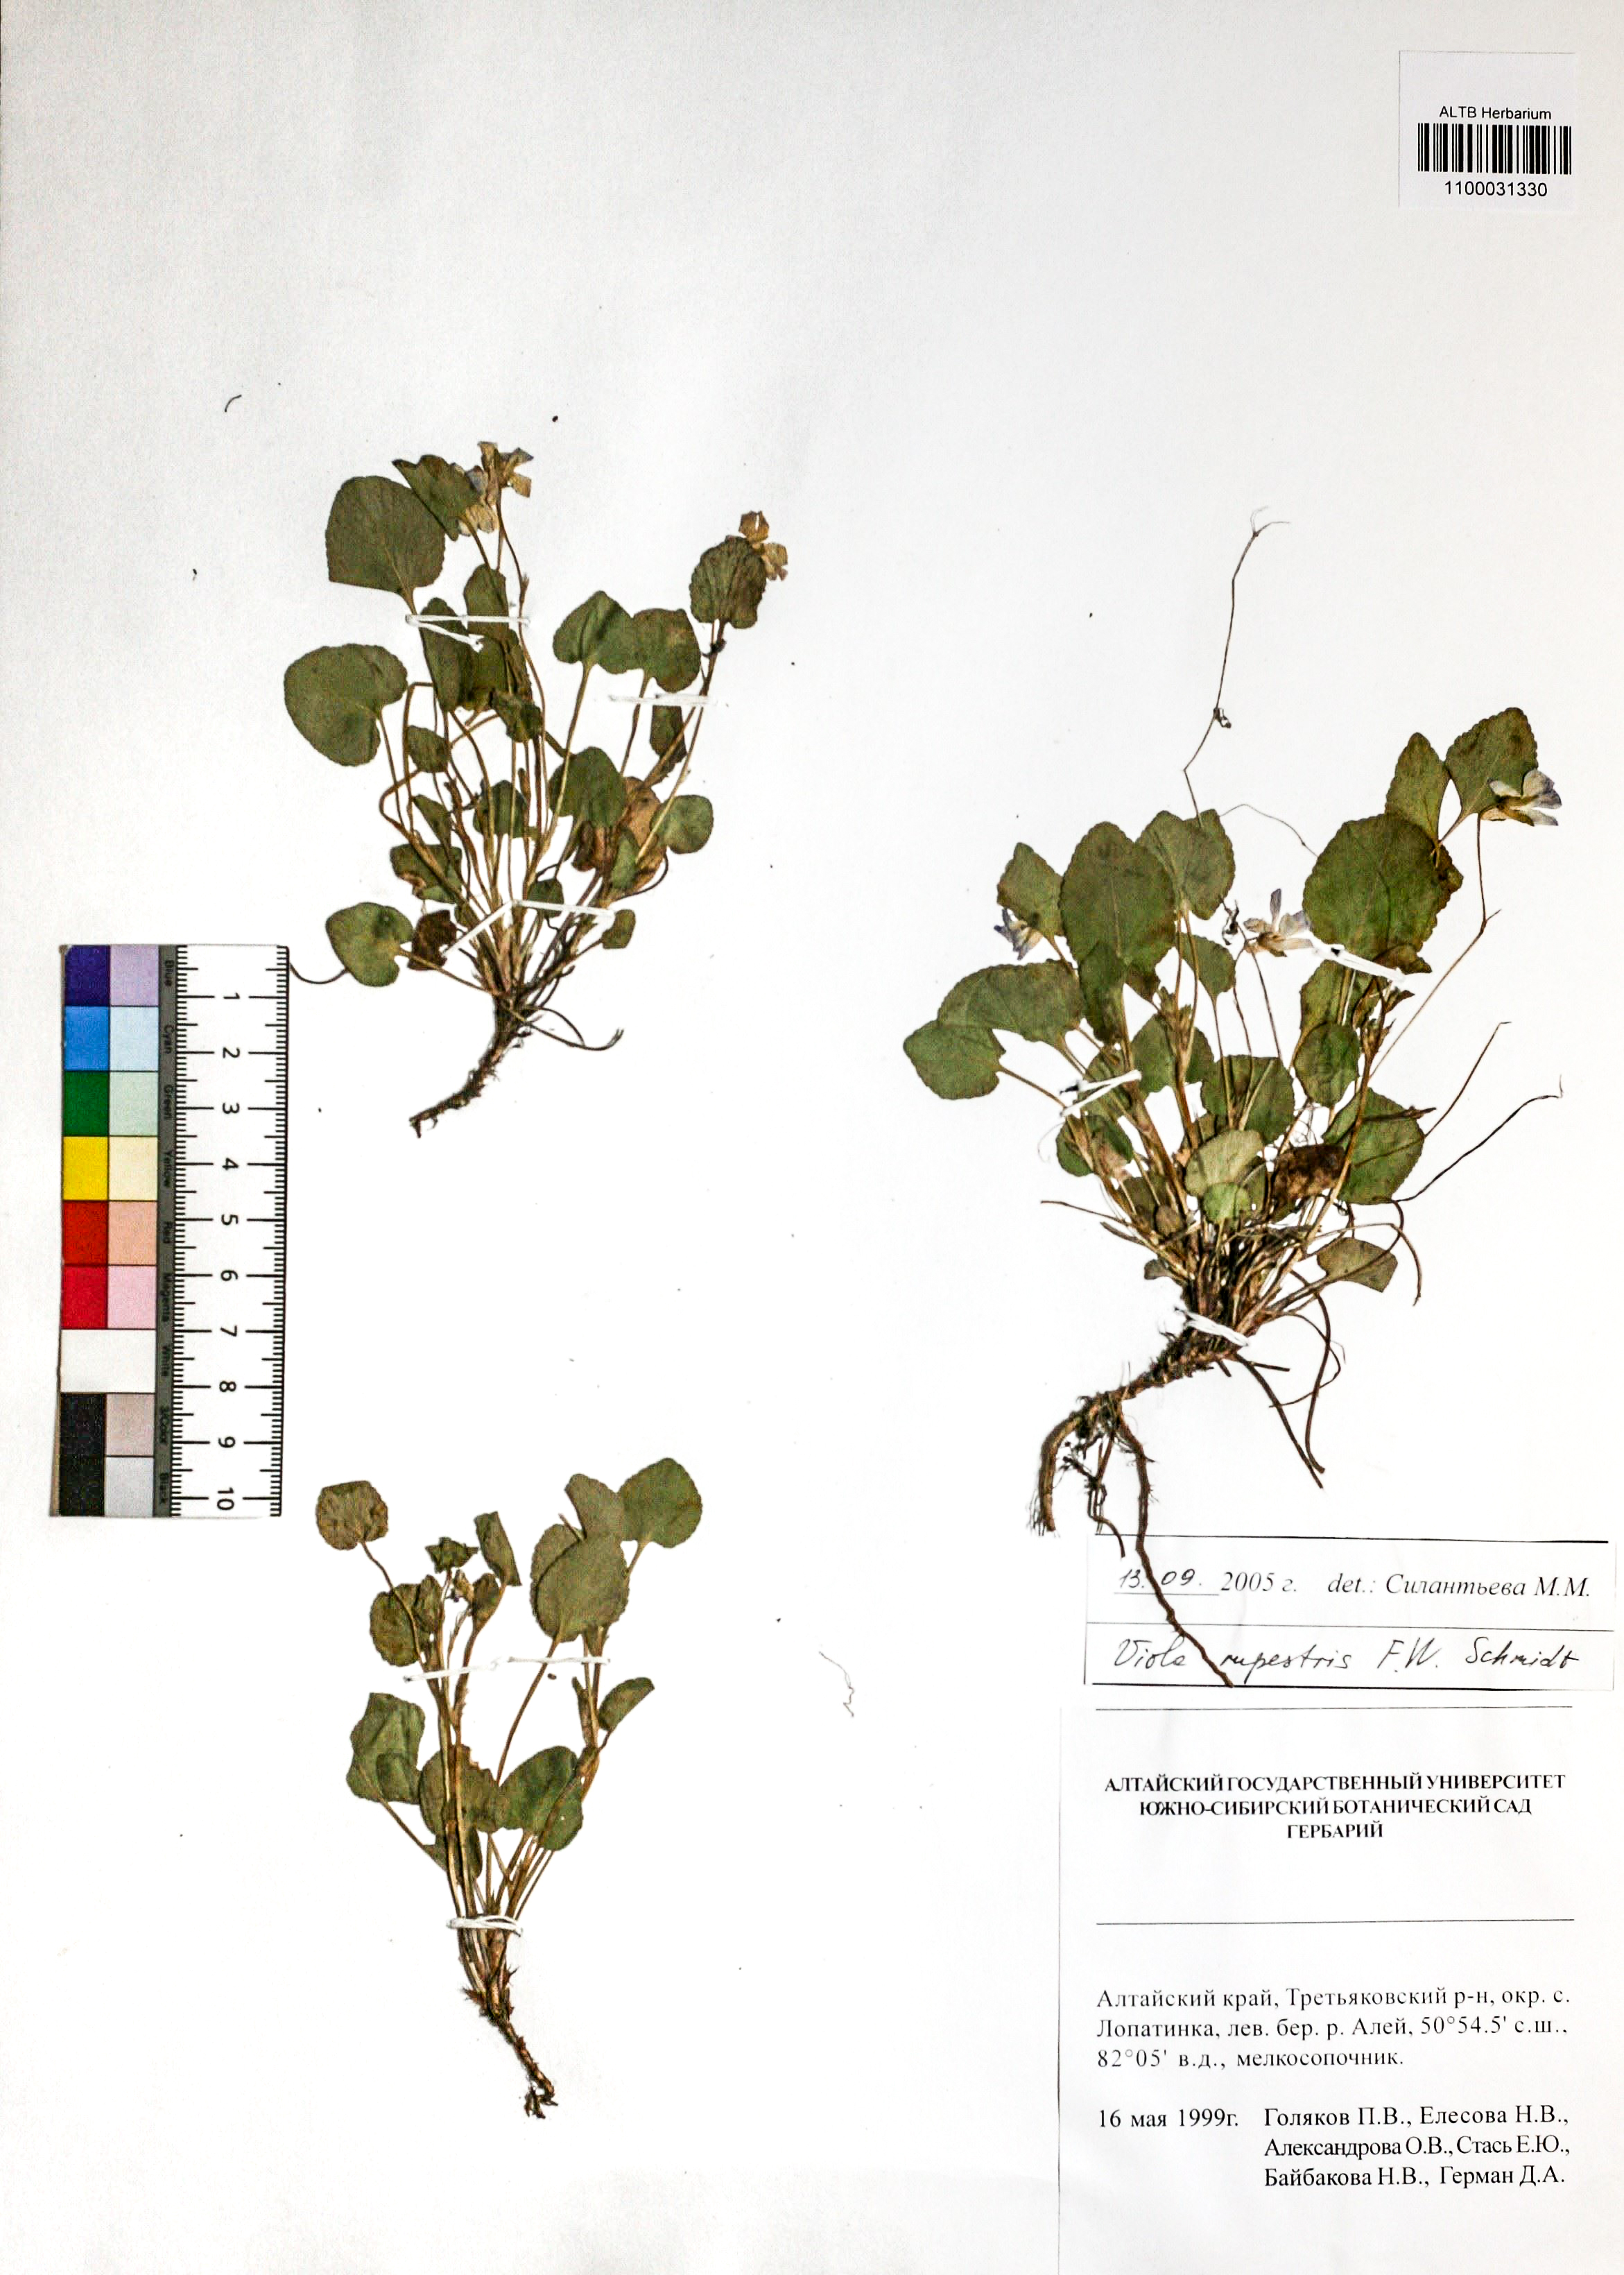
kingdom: Plantae
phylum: Tracheophyta
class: Magnoliopsida
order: Malpighiales
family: Violaceae
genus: Viola
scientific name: Viola rupestris
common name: Teesdale violet
